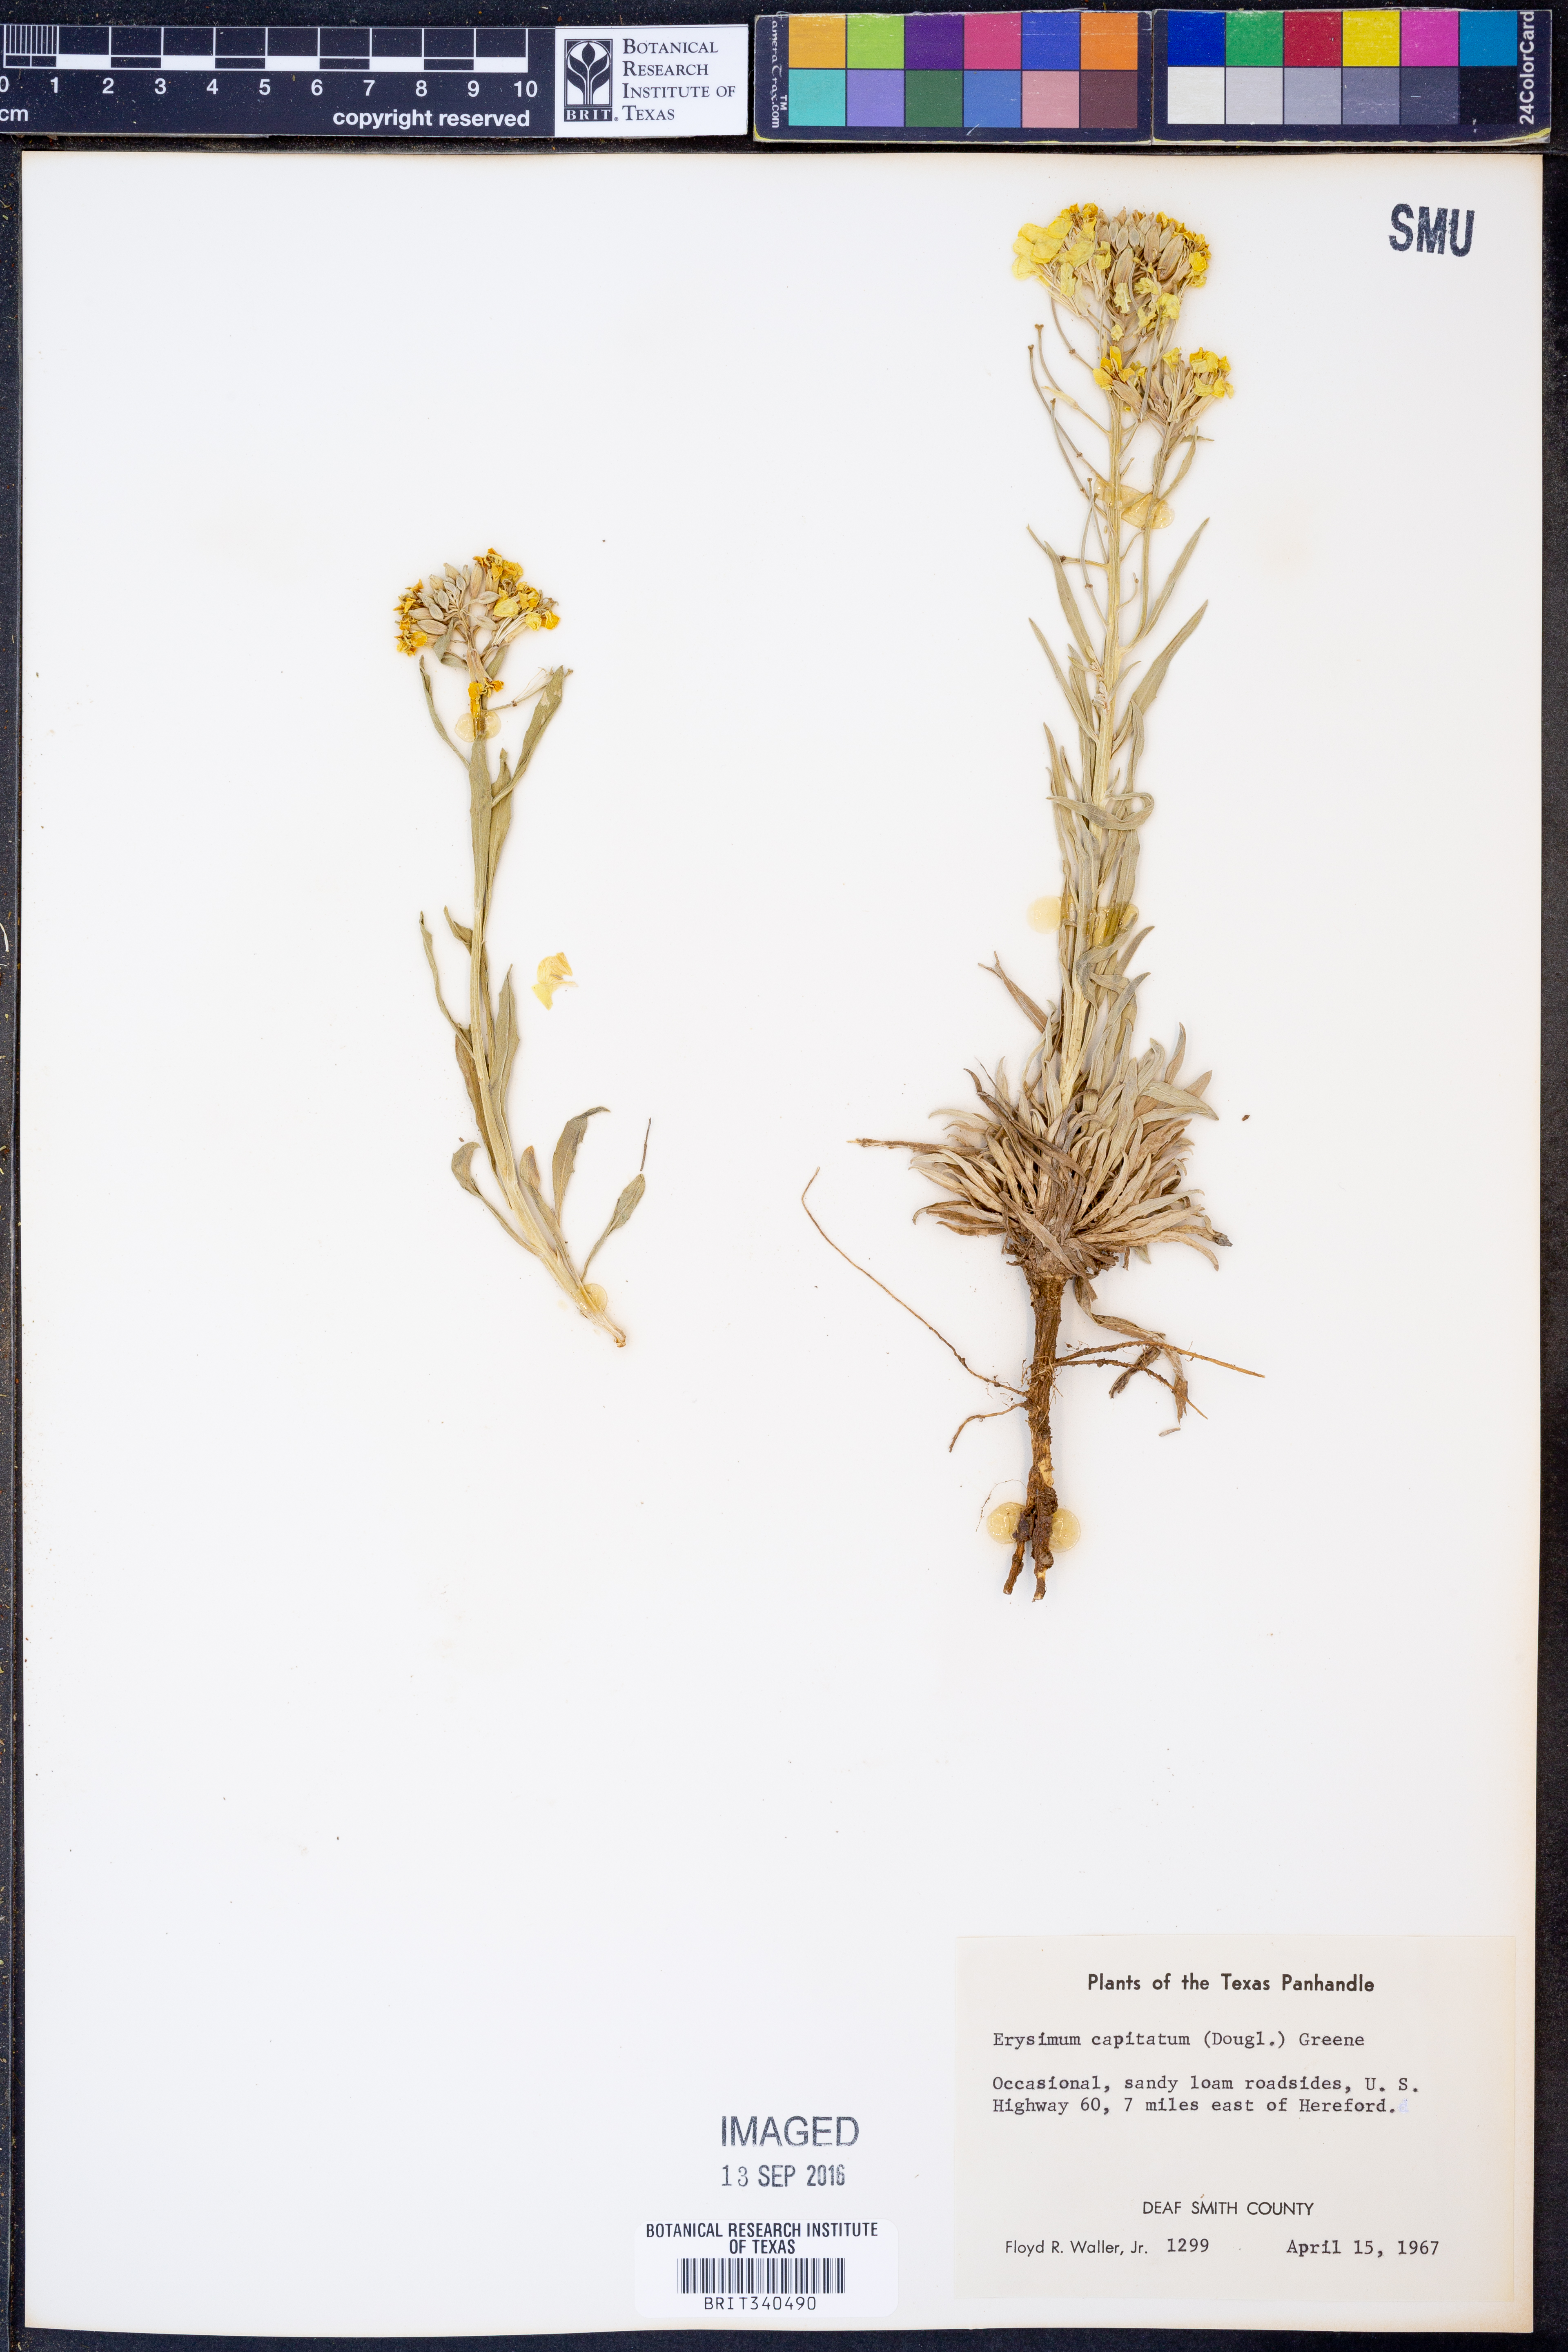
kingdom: Plantae
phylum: Tracheophyta
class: Magnoliopsida
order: Brassicales
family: Brassicaceae
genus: Erysimum
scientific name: Erysimum capitatum
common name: Western wallflower
